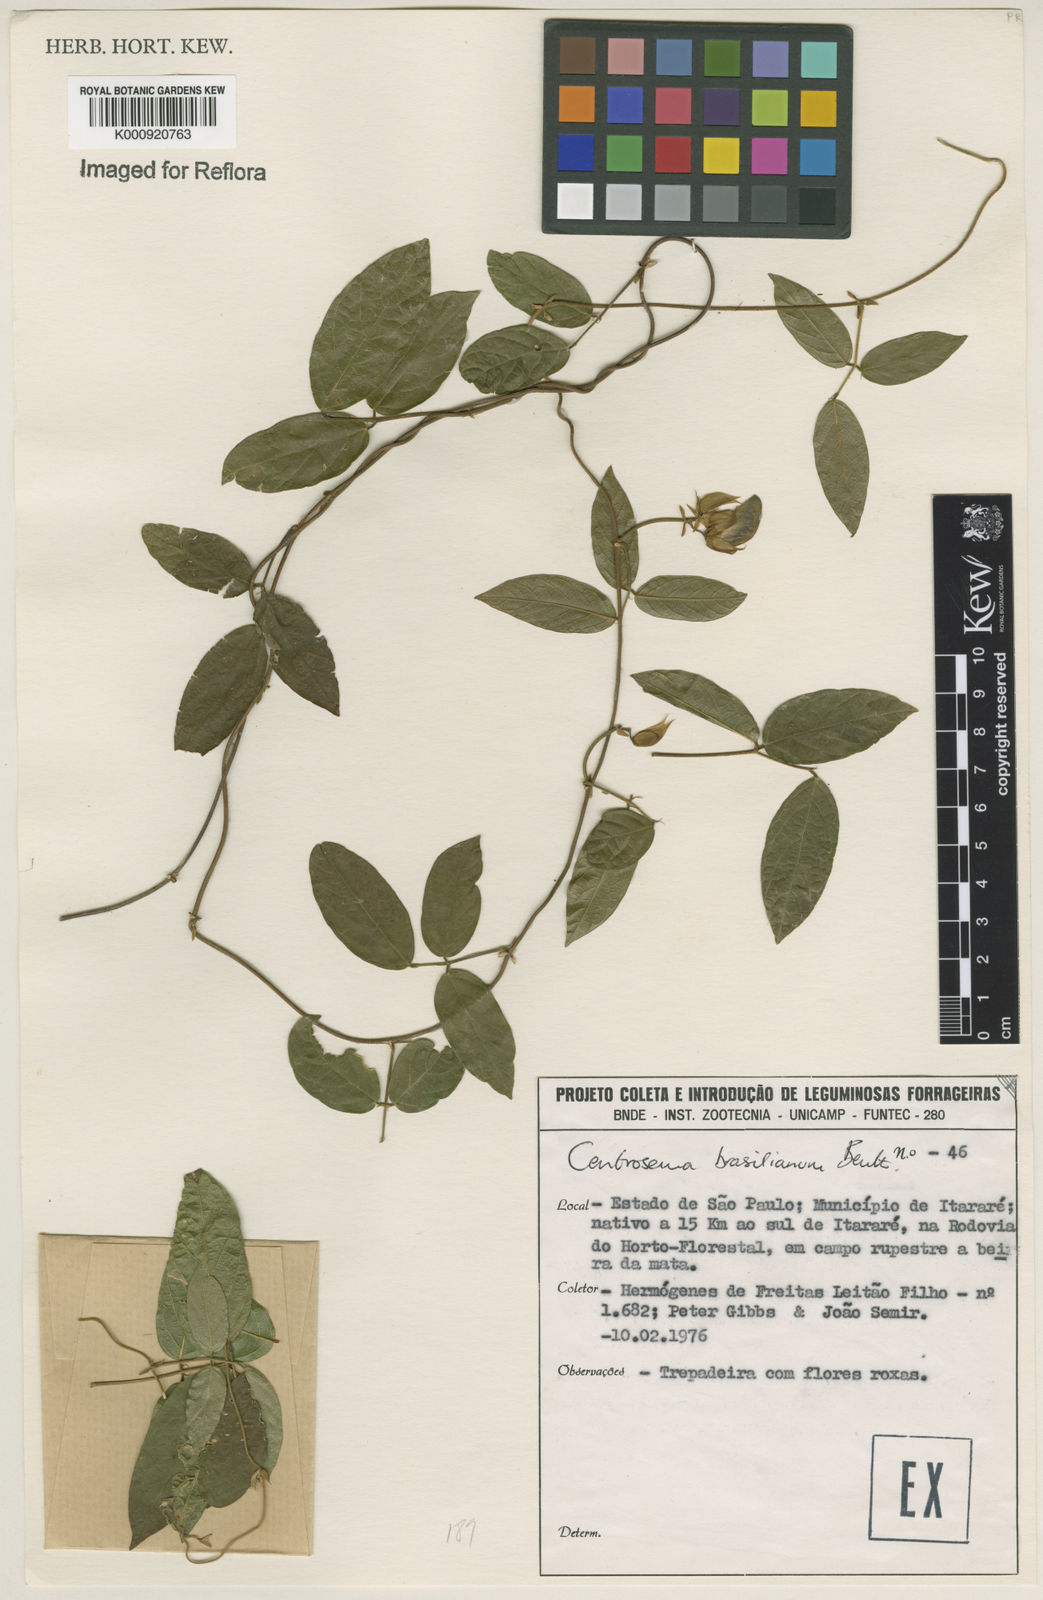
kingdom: Plantae
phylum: Tracheophyta
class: Magnoliopsida
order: Fabales
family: Fabaceae
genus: Centrosema
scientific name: Centrosema brasilianum
